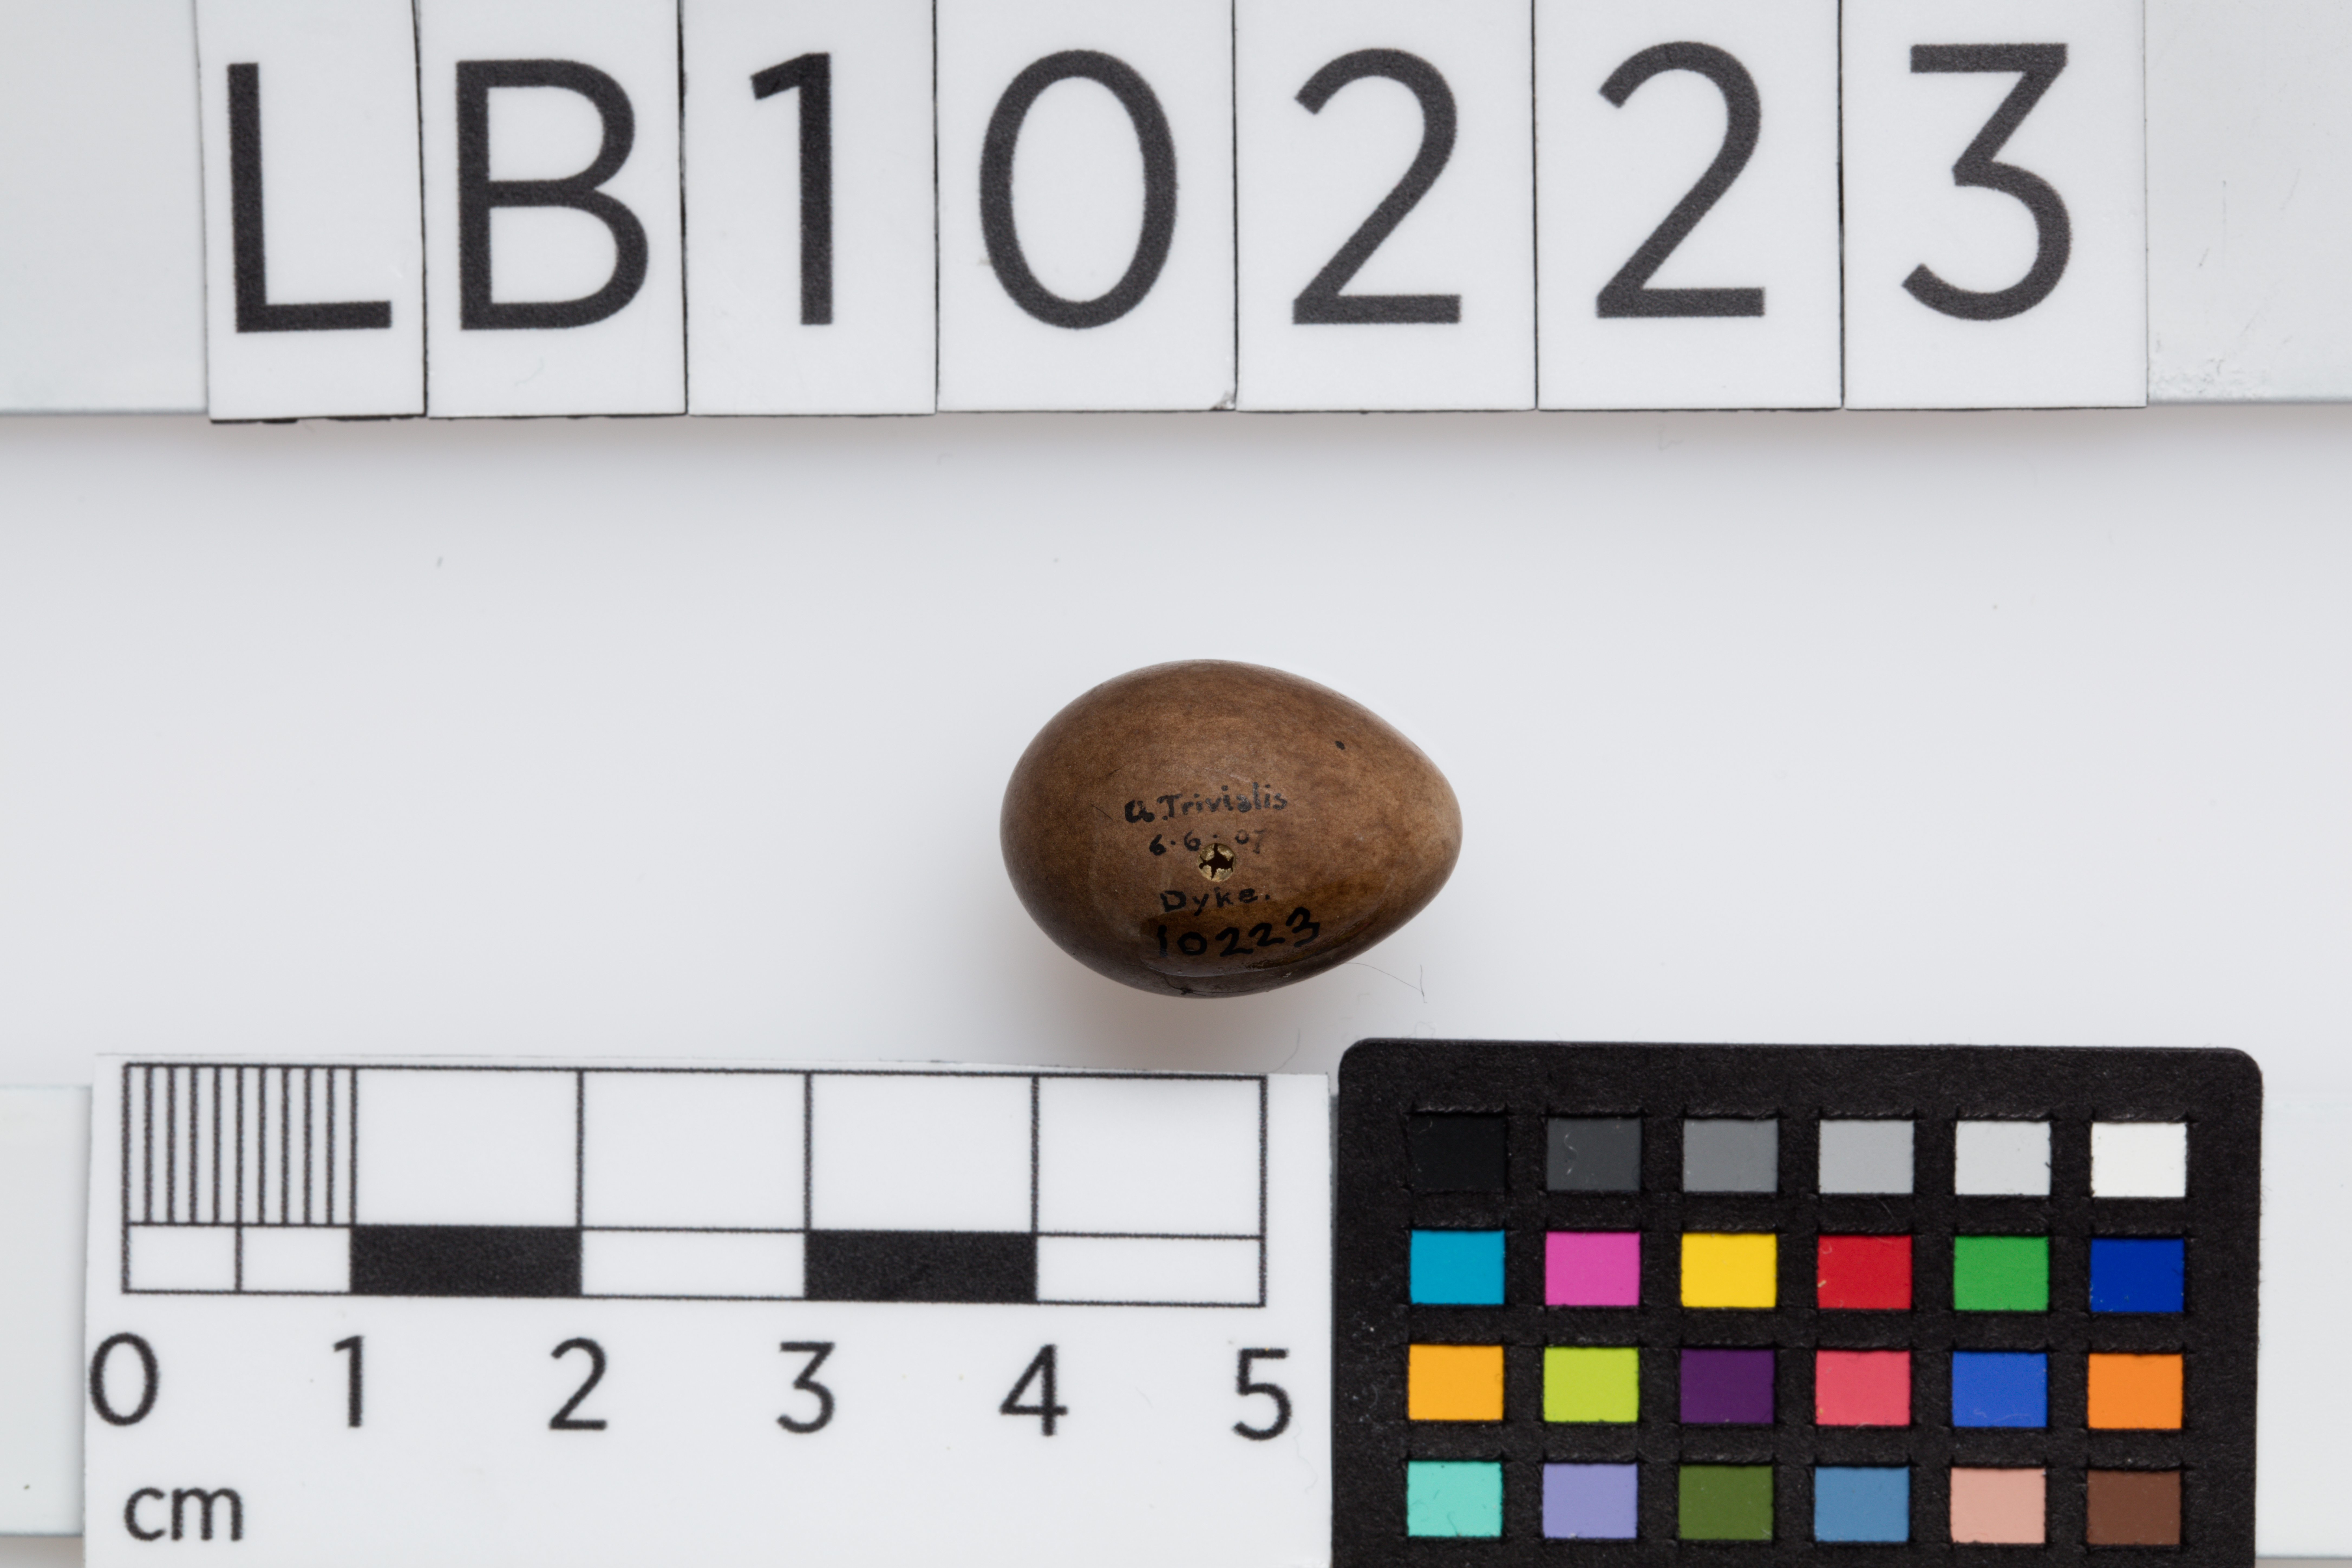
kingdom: Animalia
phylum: Chordata
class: Aves
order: Passeriformes
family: Motacillidae
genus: Anthus
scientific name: Anthus trivialis
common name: Tree pipit
